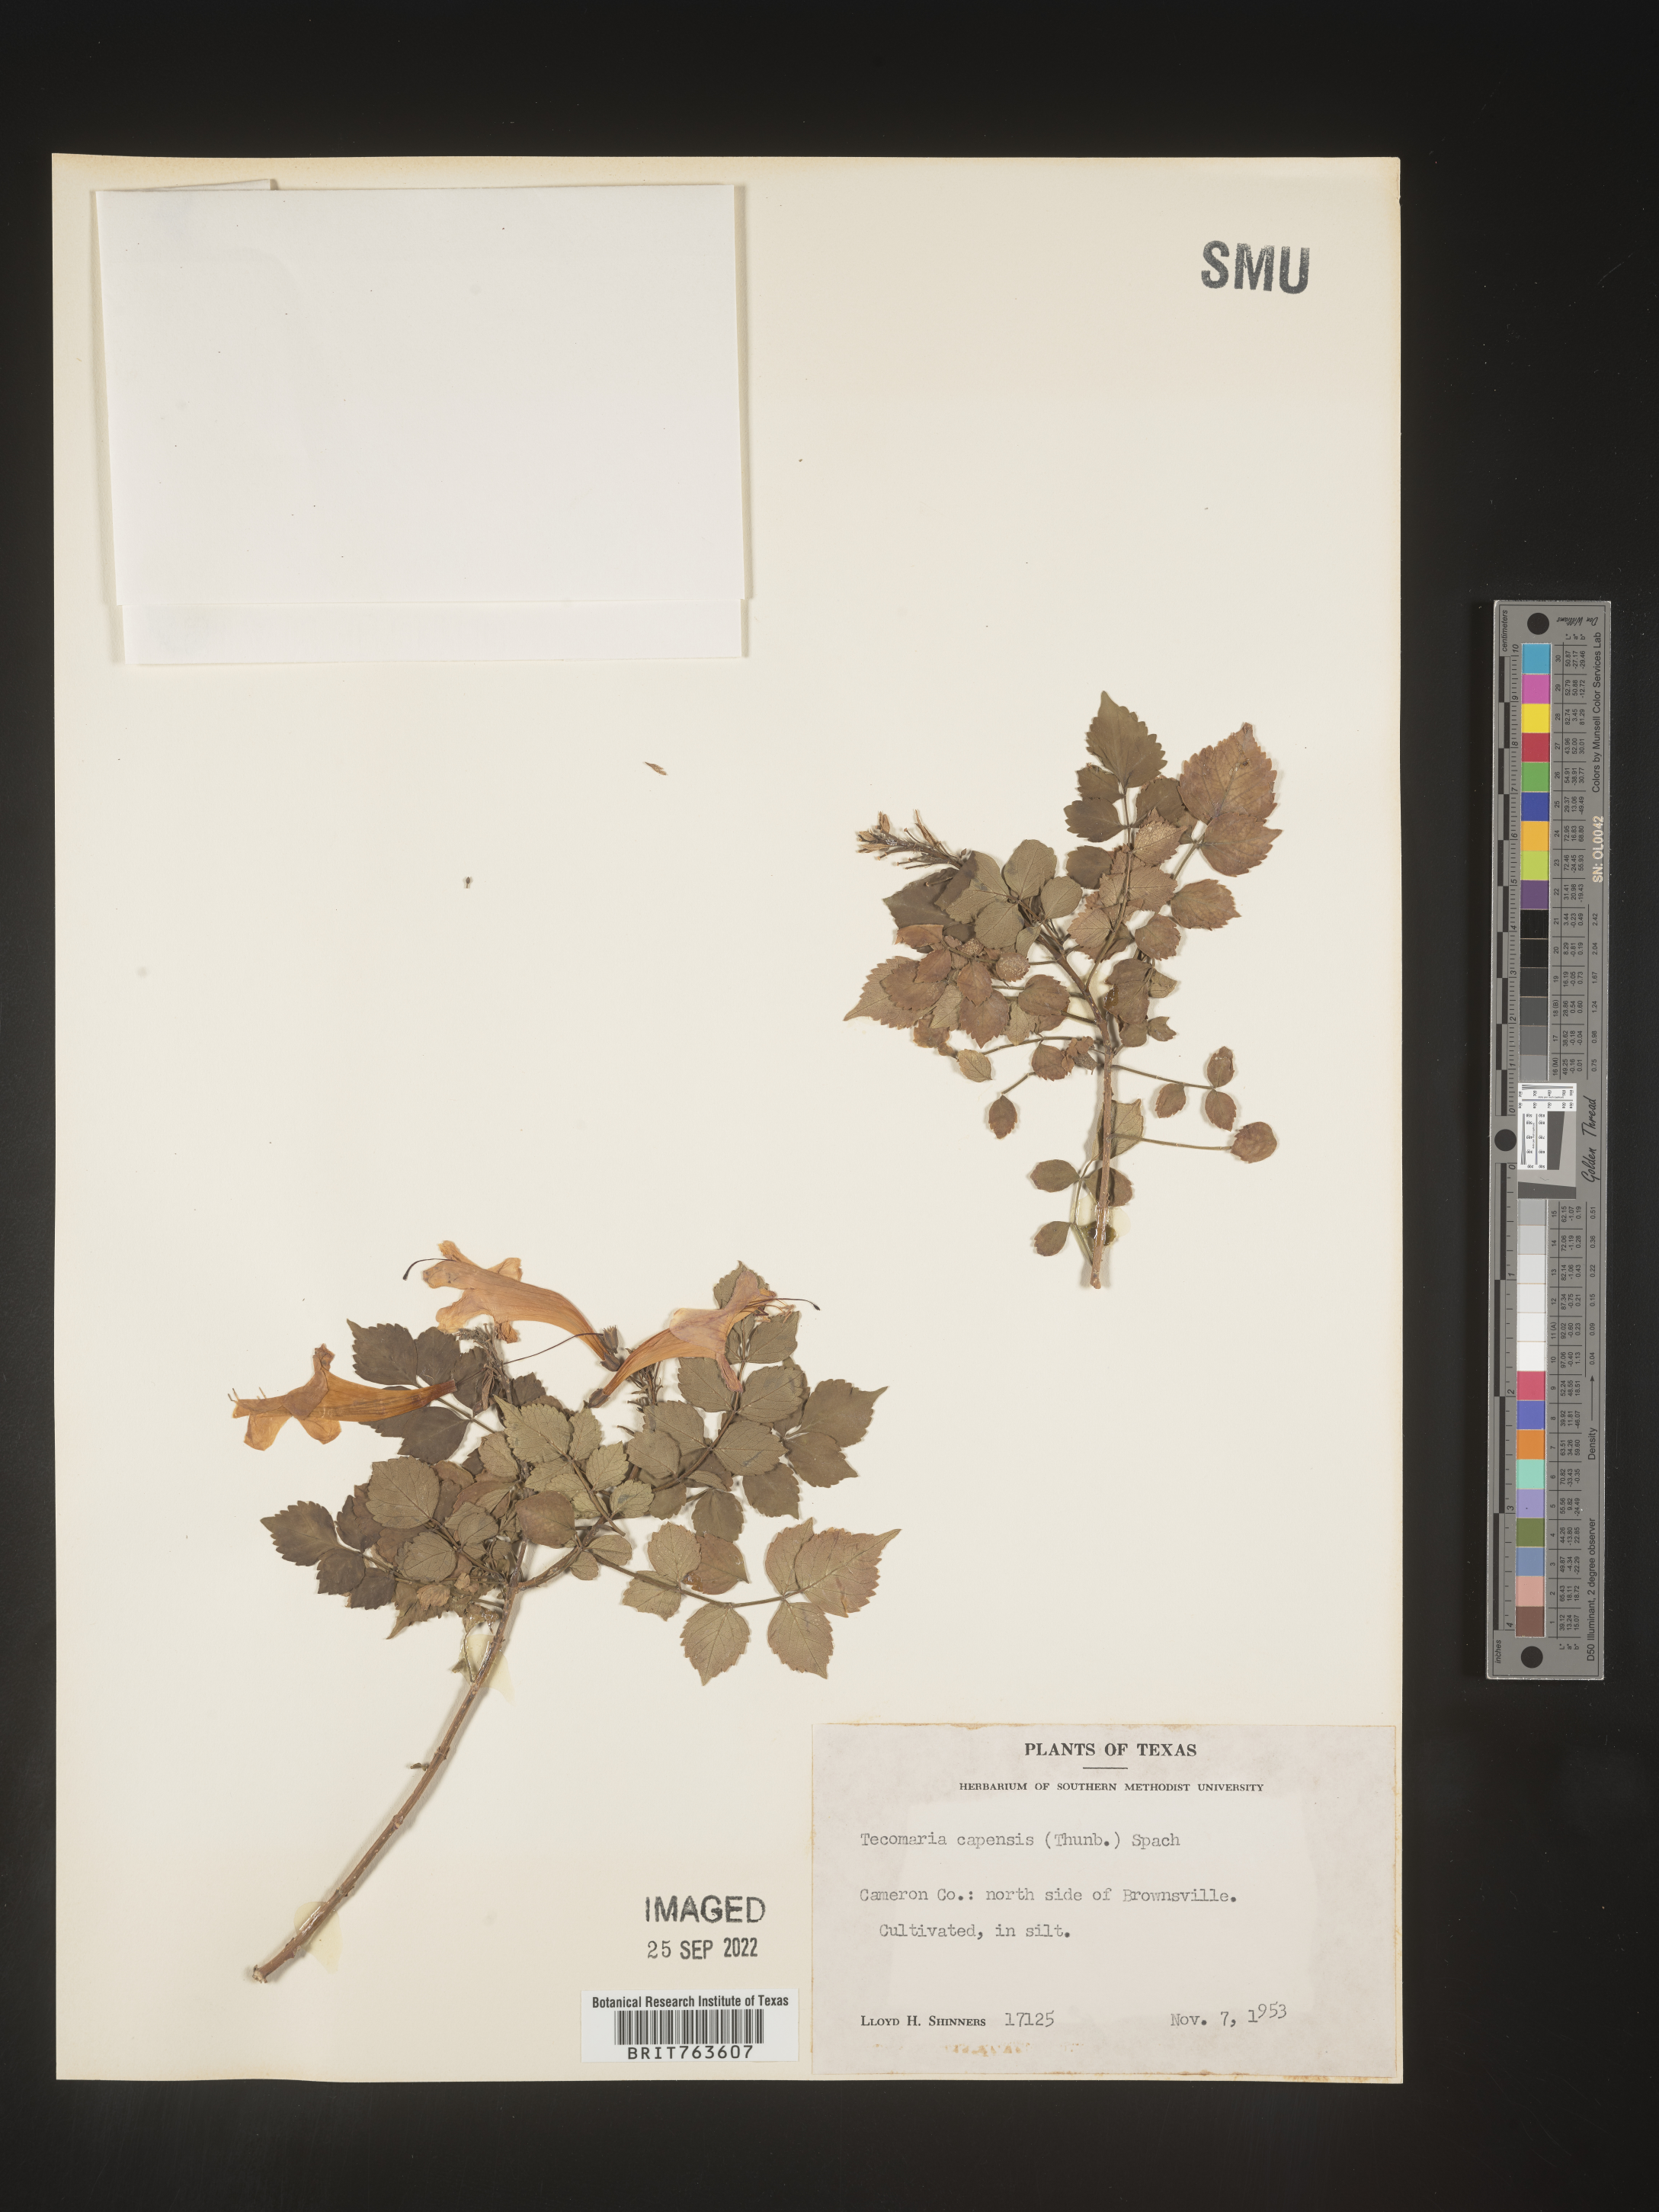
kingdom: Plantae
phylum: Tracheophyta
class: Magnoliopsida
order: Lamiales
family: Bignoniaceae
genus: Tecomaria
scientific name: Tecomaria
